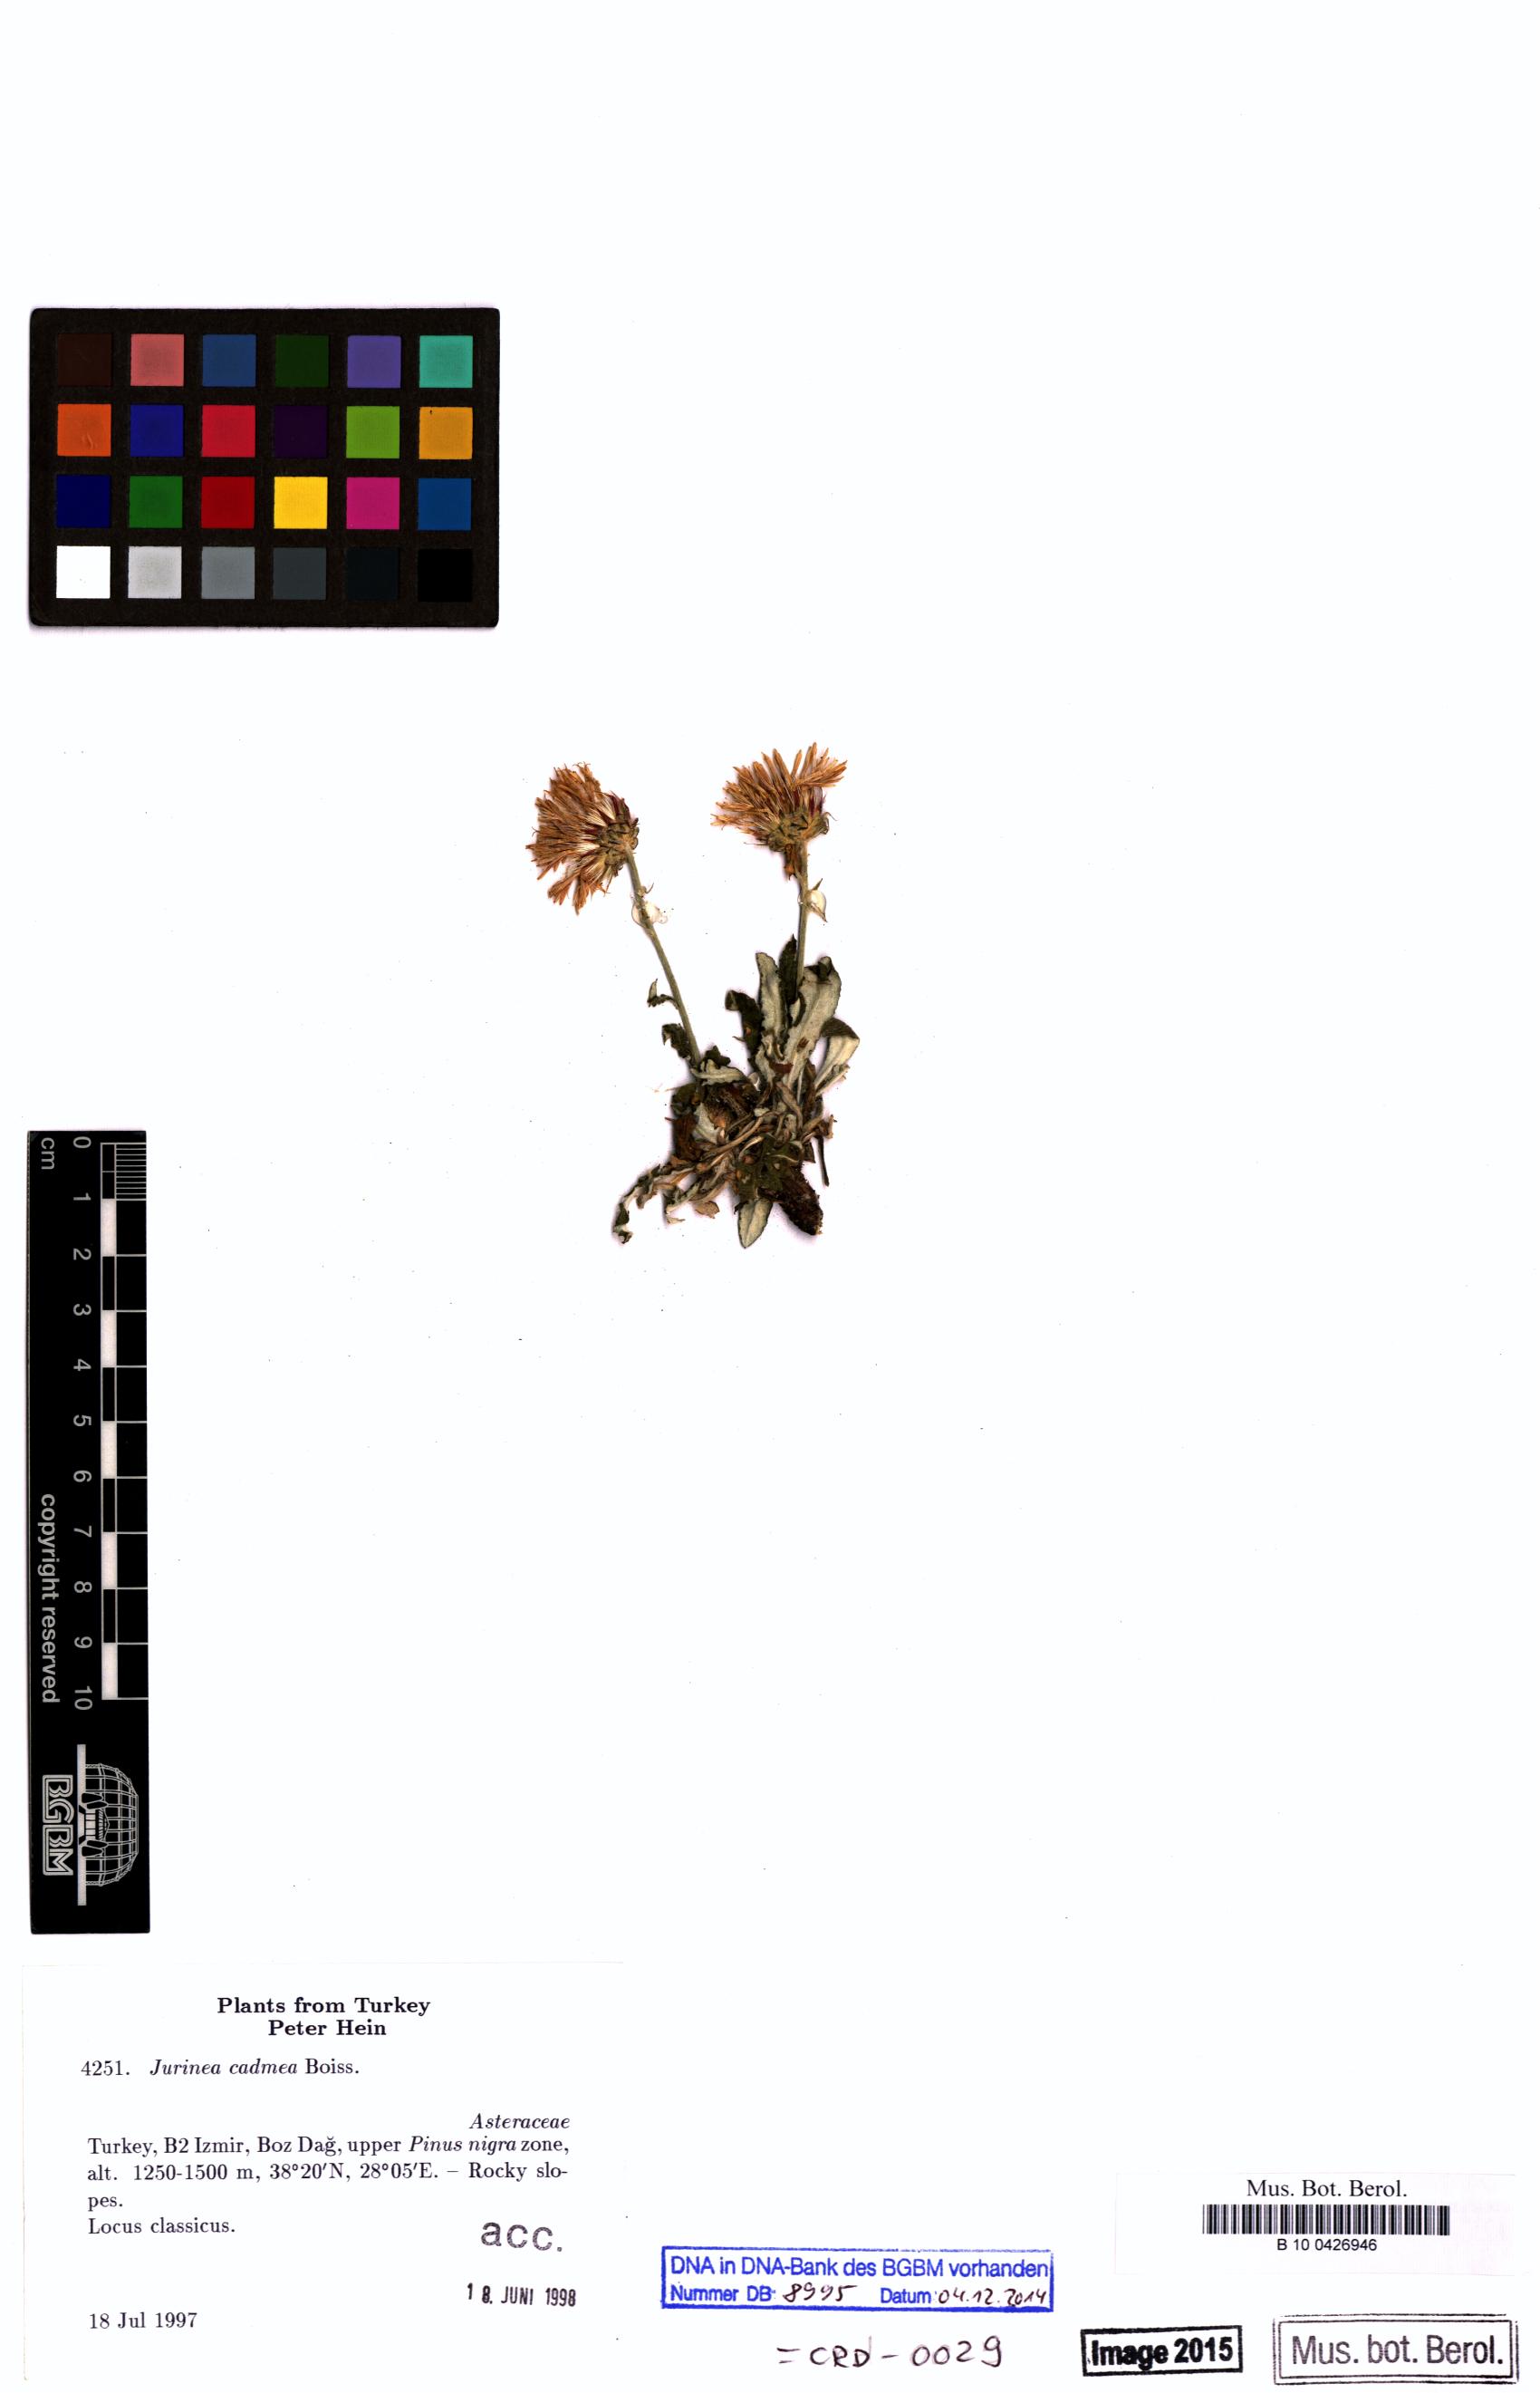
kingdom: Plantae
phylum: Tracheophyta
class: Magnoliopsida
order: Asterales
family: Asteraceae
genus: Jurinea
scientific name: Jurinea cadmea
